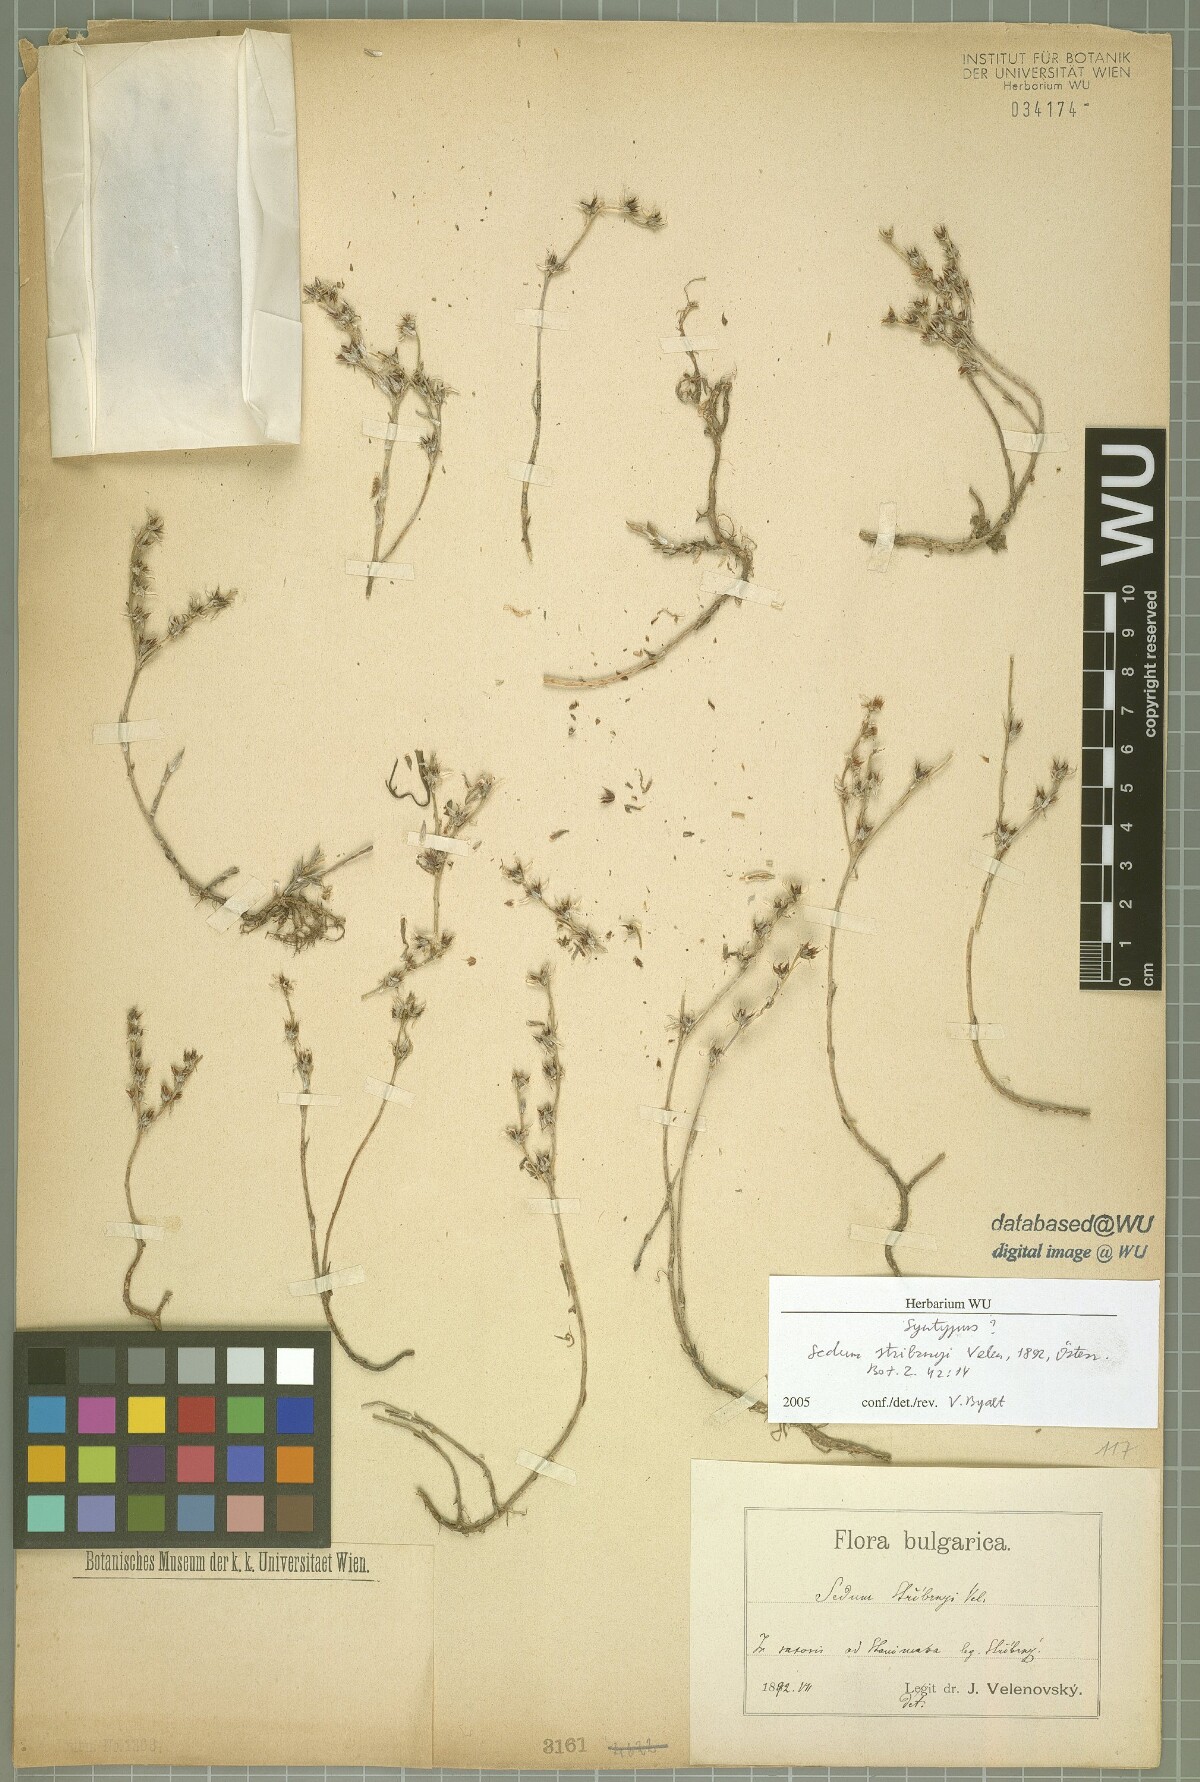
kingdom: Plantae
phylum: Tracheophyta
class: Magnoliopsida
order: Saxifragales
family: Crassulaceae
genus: Sedum
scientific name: Sedum urvillei
